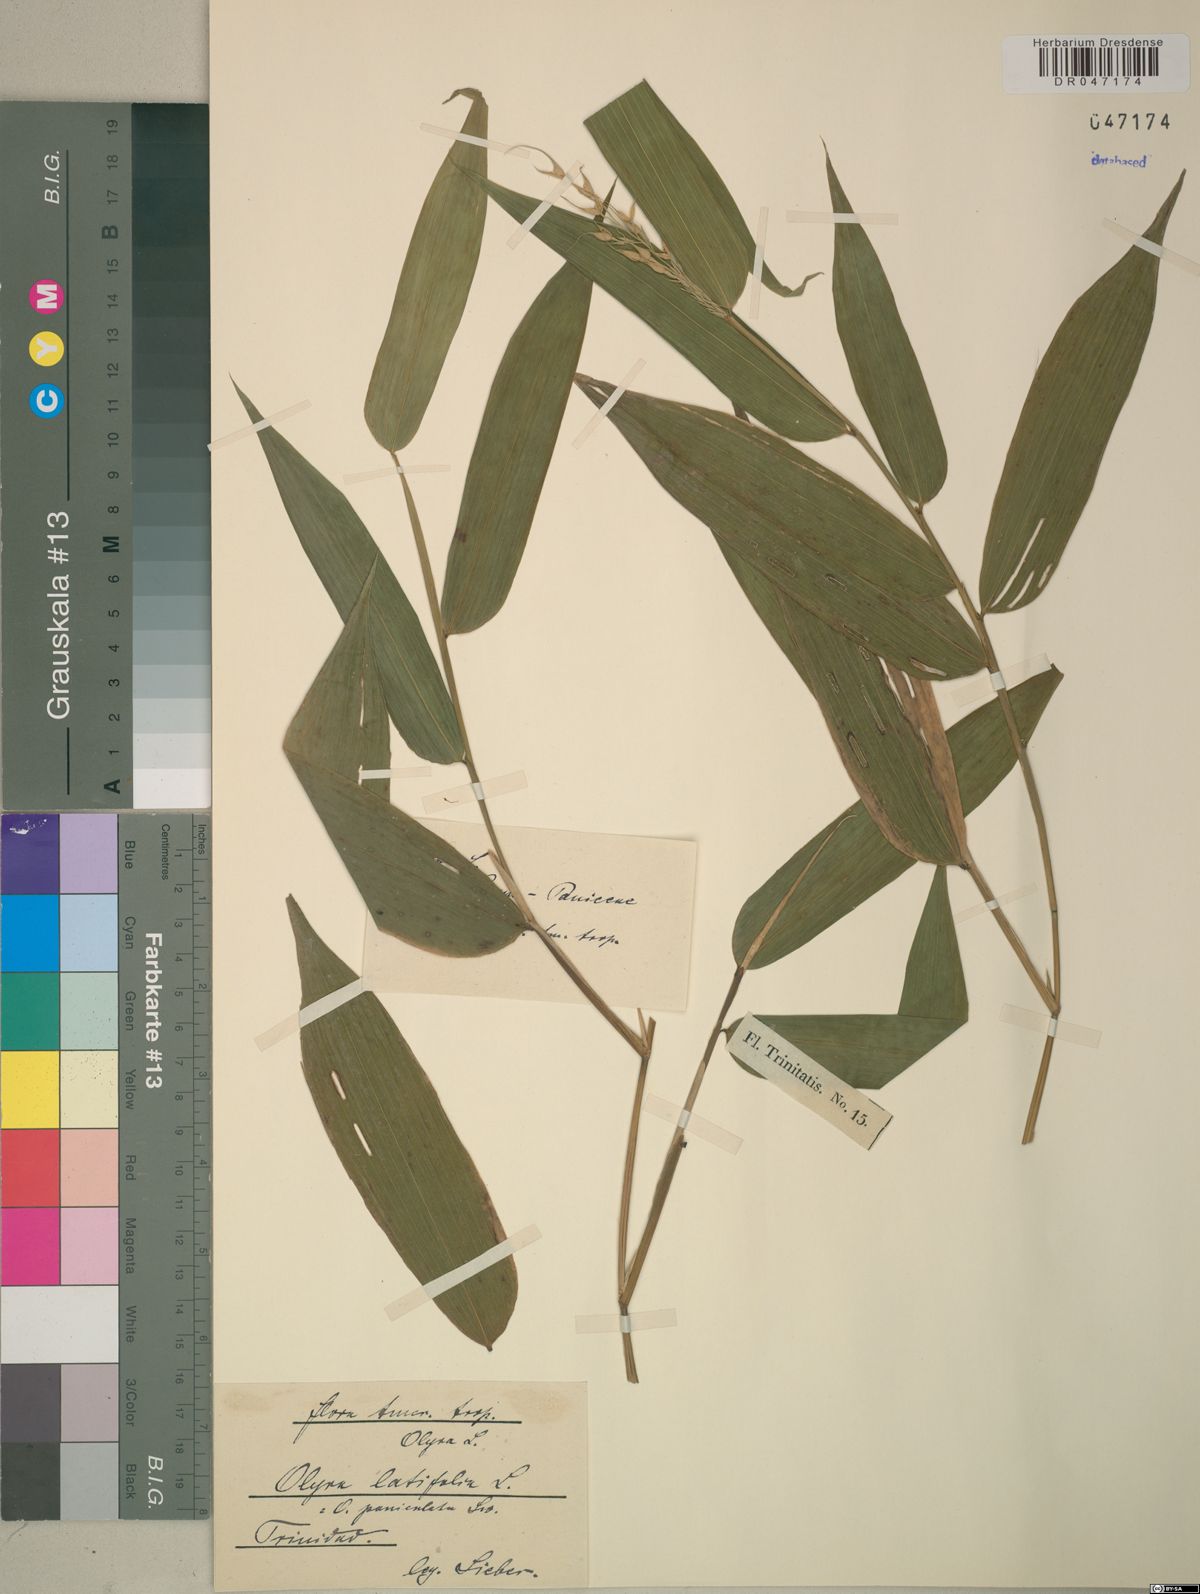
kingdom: Plantae
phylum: Tracheophyta
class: Liliopsida
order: Poales
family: Poaceae
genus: Olyra
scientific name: Olyra latifolia
